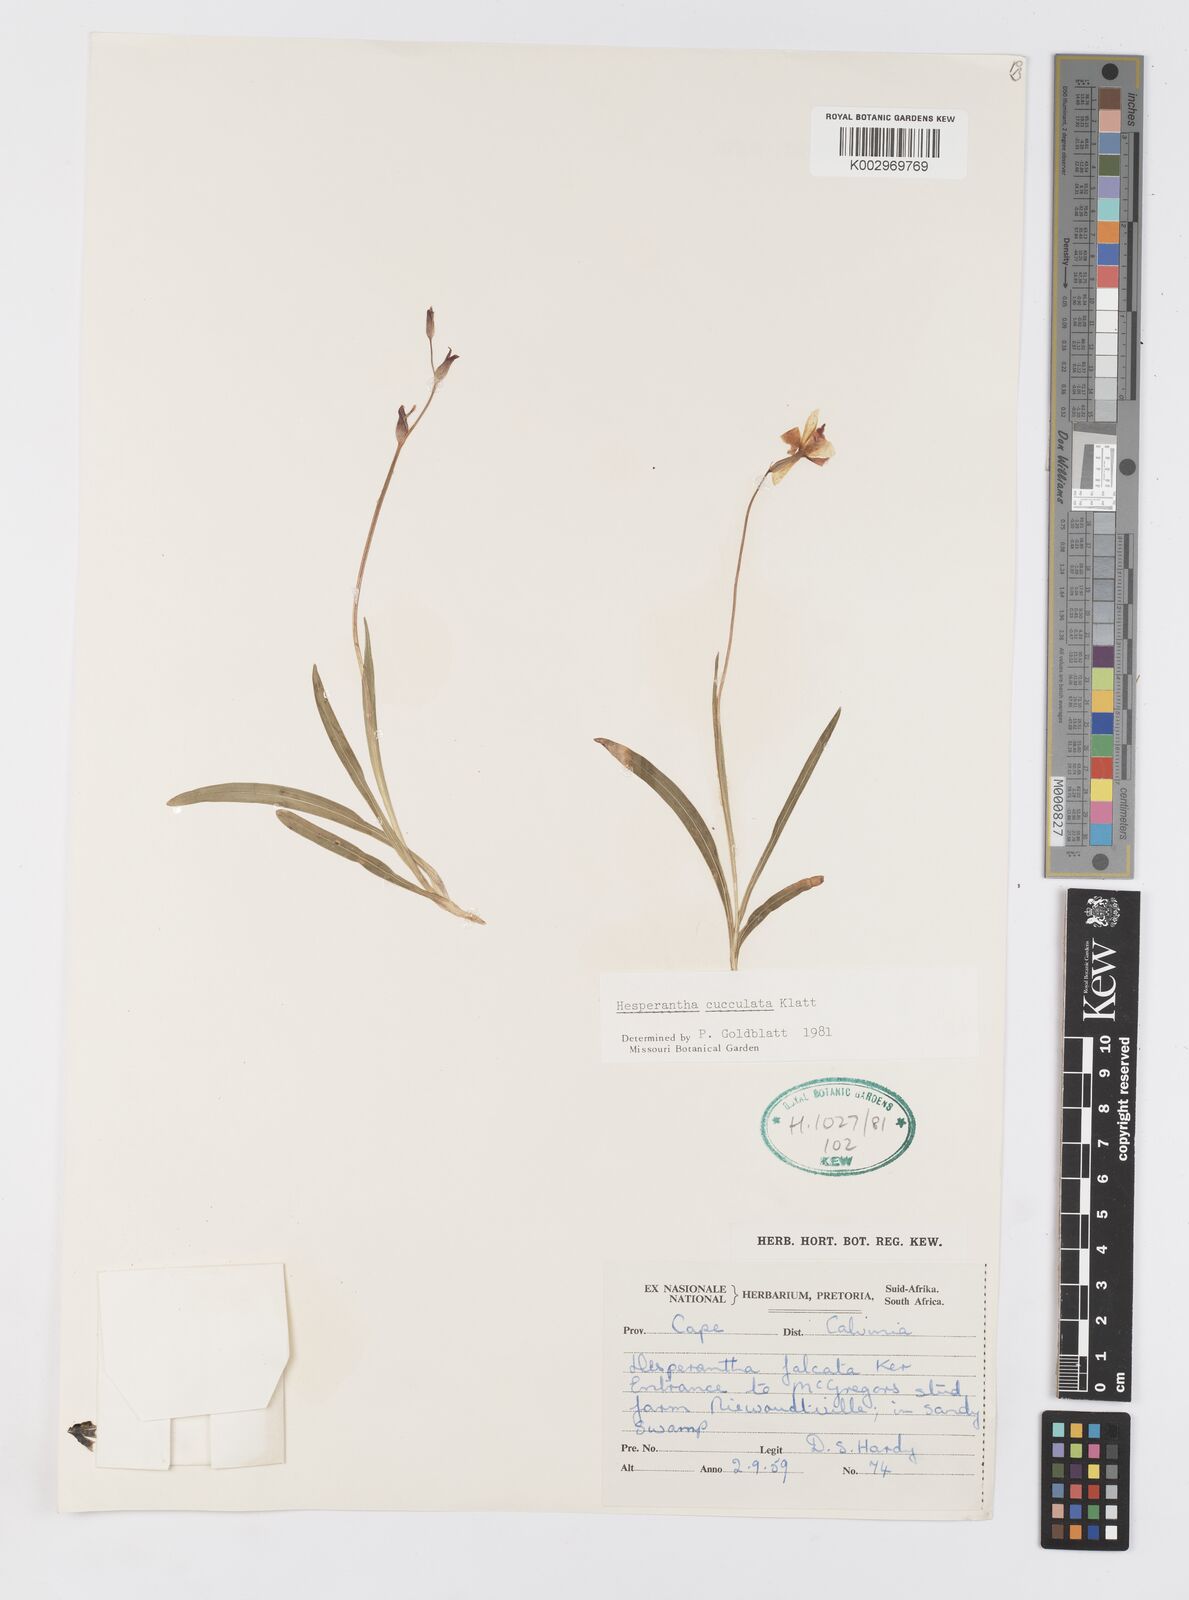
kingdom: Plantae
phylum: Tracheophyta
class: Liliopsida
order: Asparagales
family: Iridaceae
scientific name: Iridaceae
